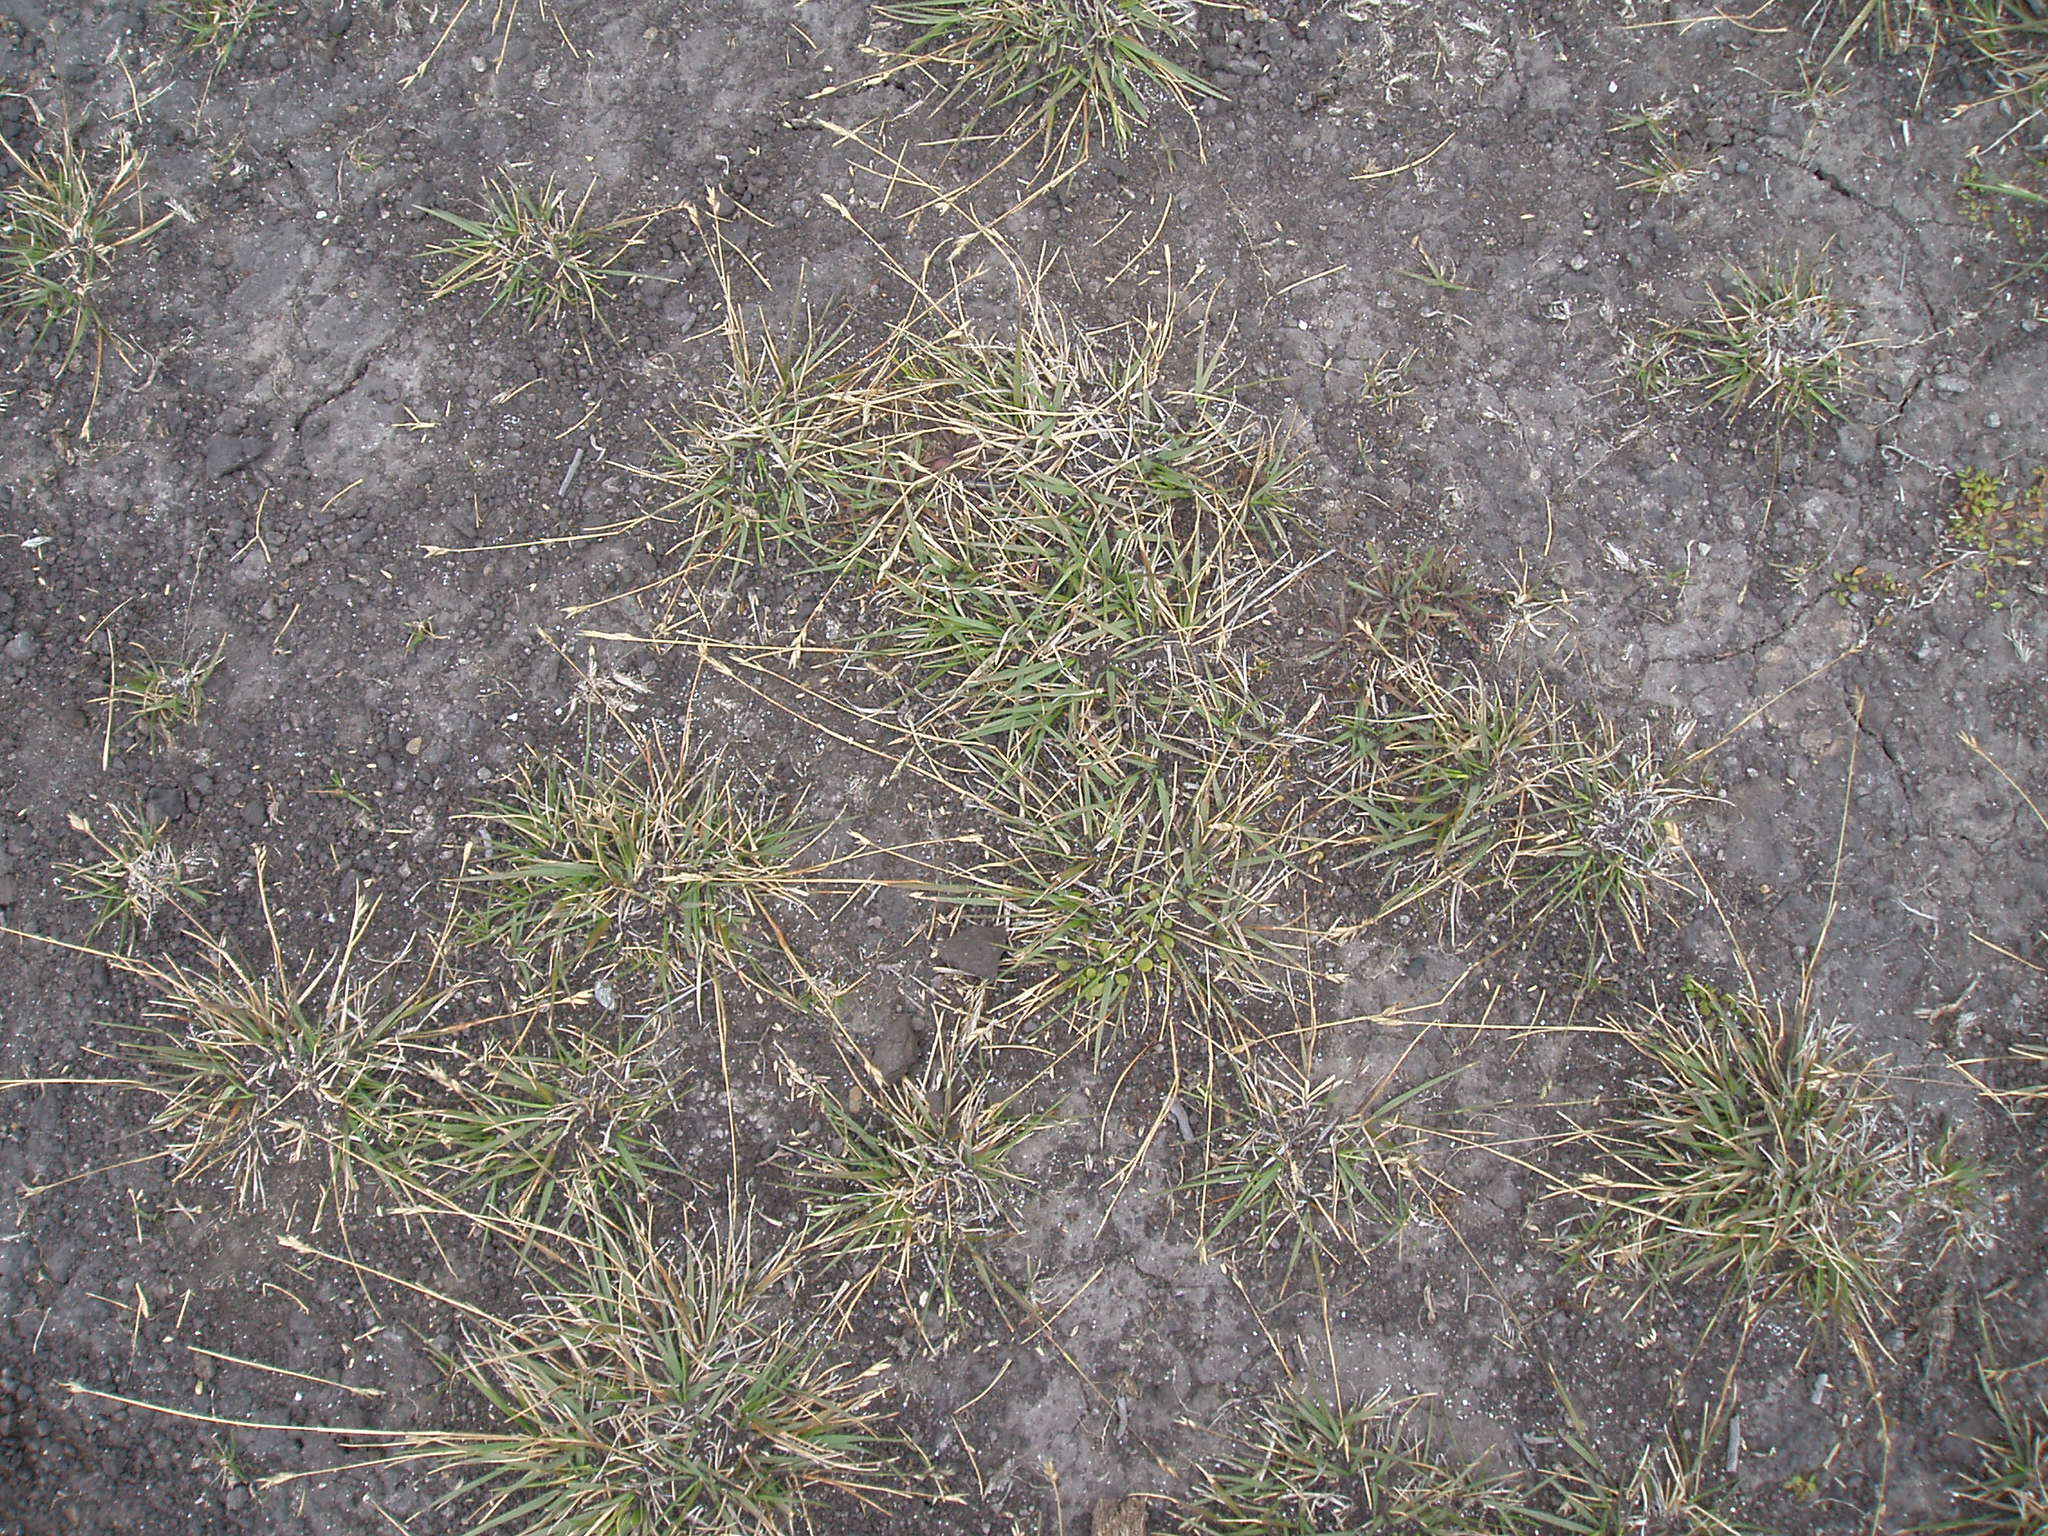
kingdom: Plantae
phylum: Tracheophyta
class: Liliopsida
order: Poales
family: Poaceae
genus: Danthonia
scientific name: Danthonia decumbens
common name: Common heathgrass
